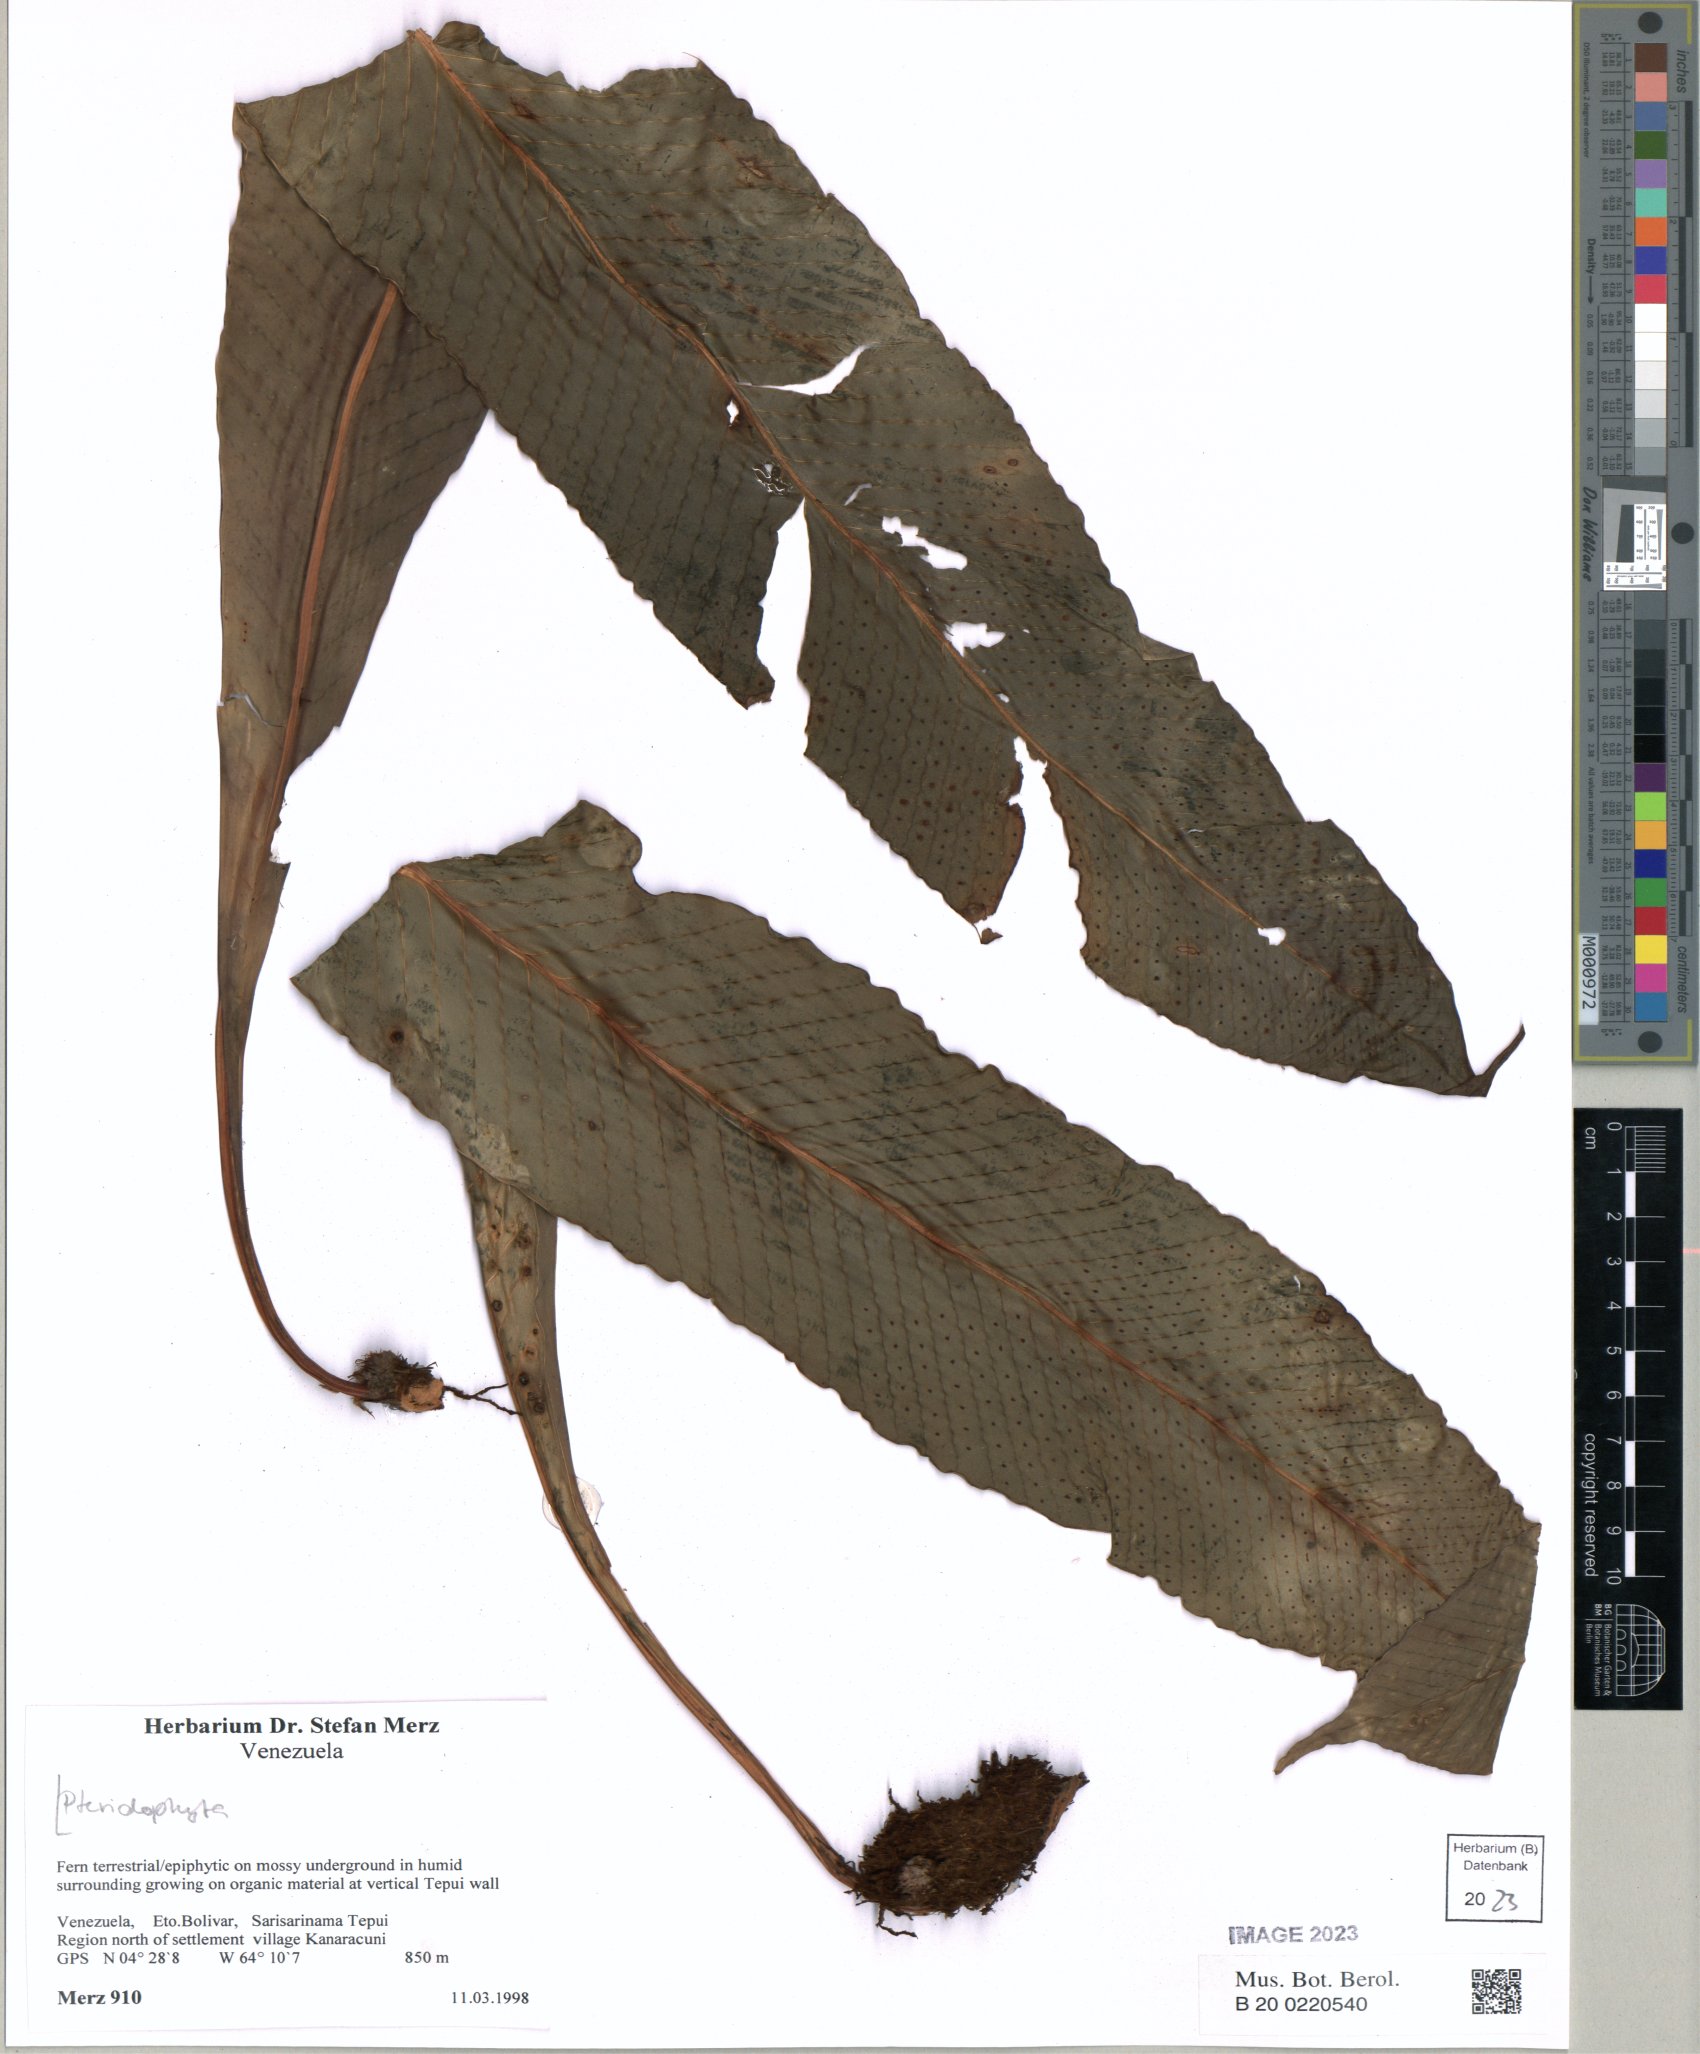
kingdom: Plantae
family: Pteridophyta
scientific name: Pteridophyta
